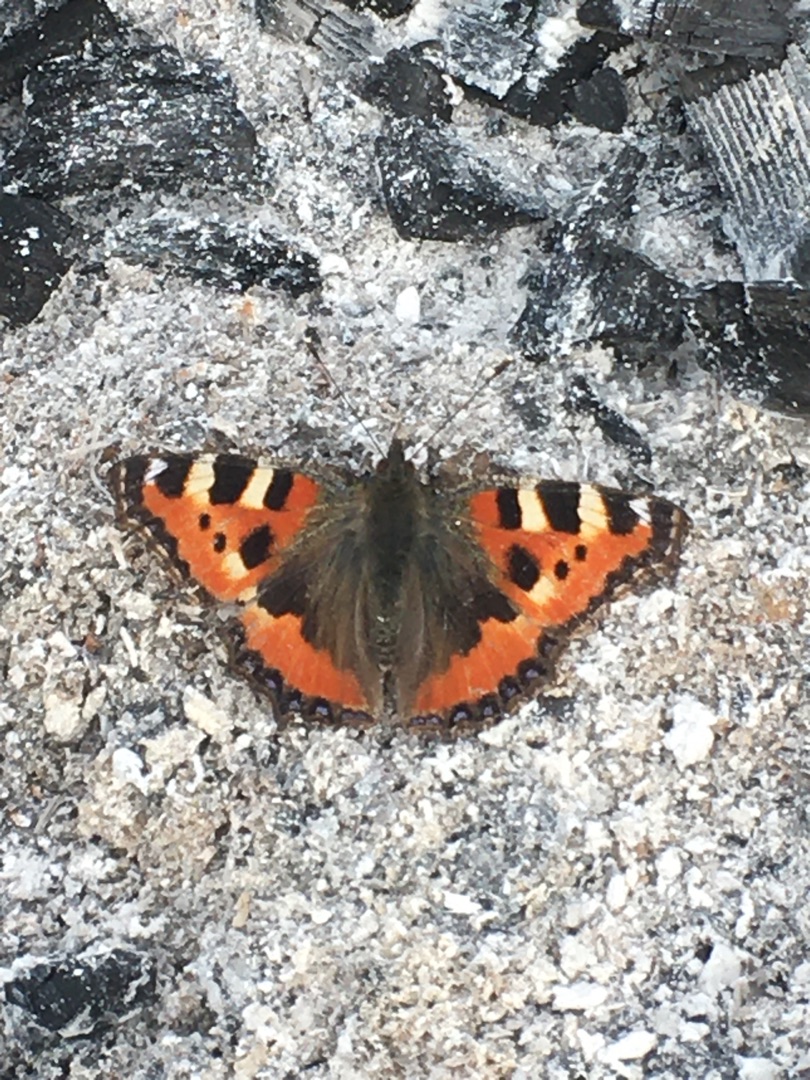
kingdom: Animalia
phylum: Arthropoda
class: Insecta
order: Lepidoptera
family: Nymphalidae
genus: Aglais
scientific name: Aglais urticae
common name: Nældens takvinge
